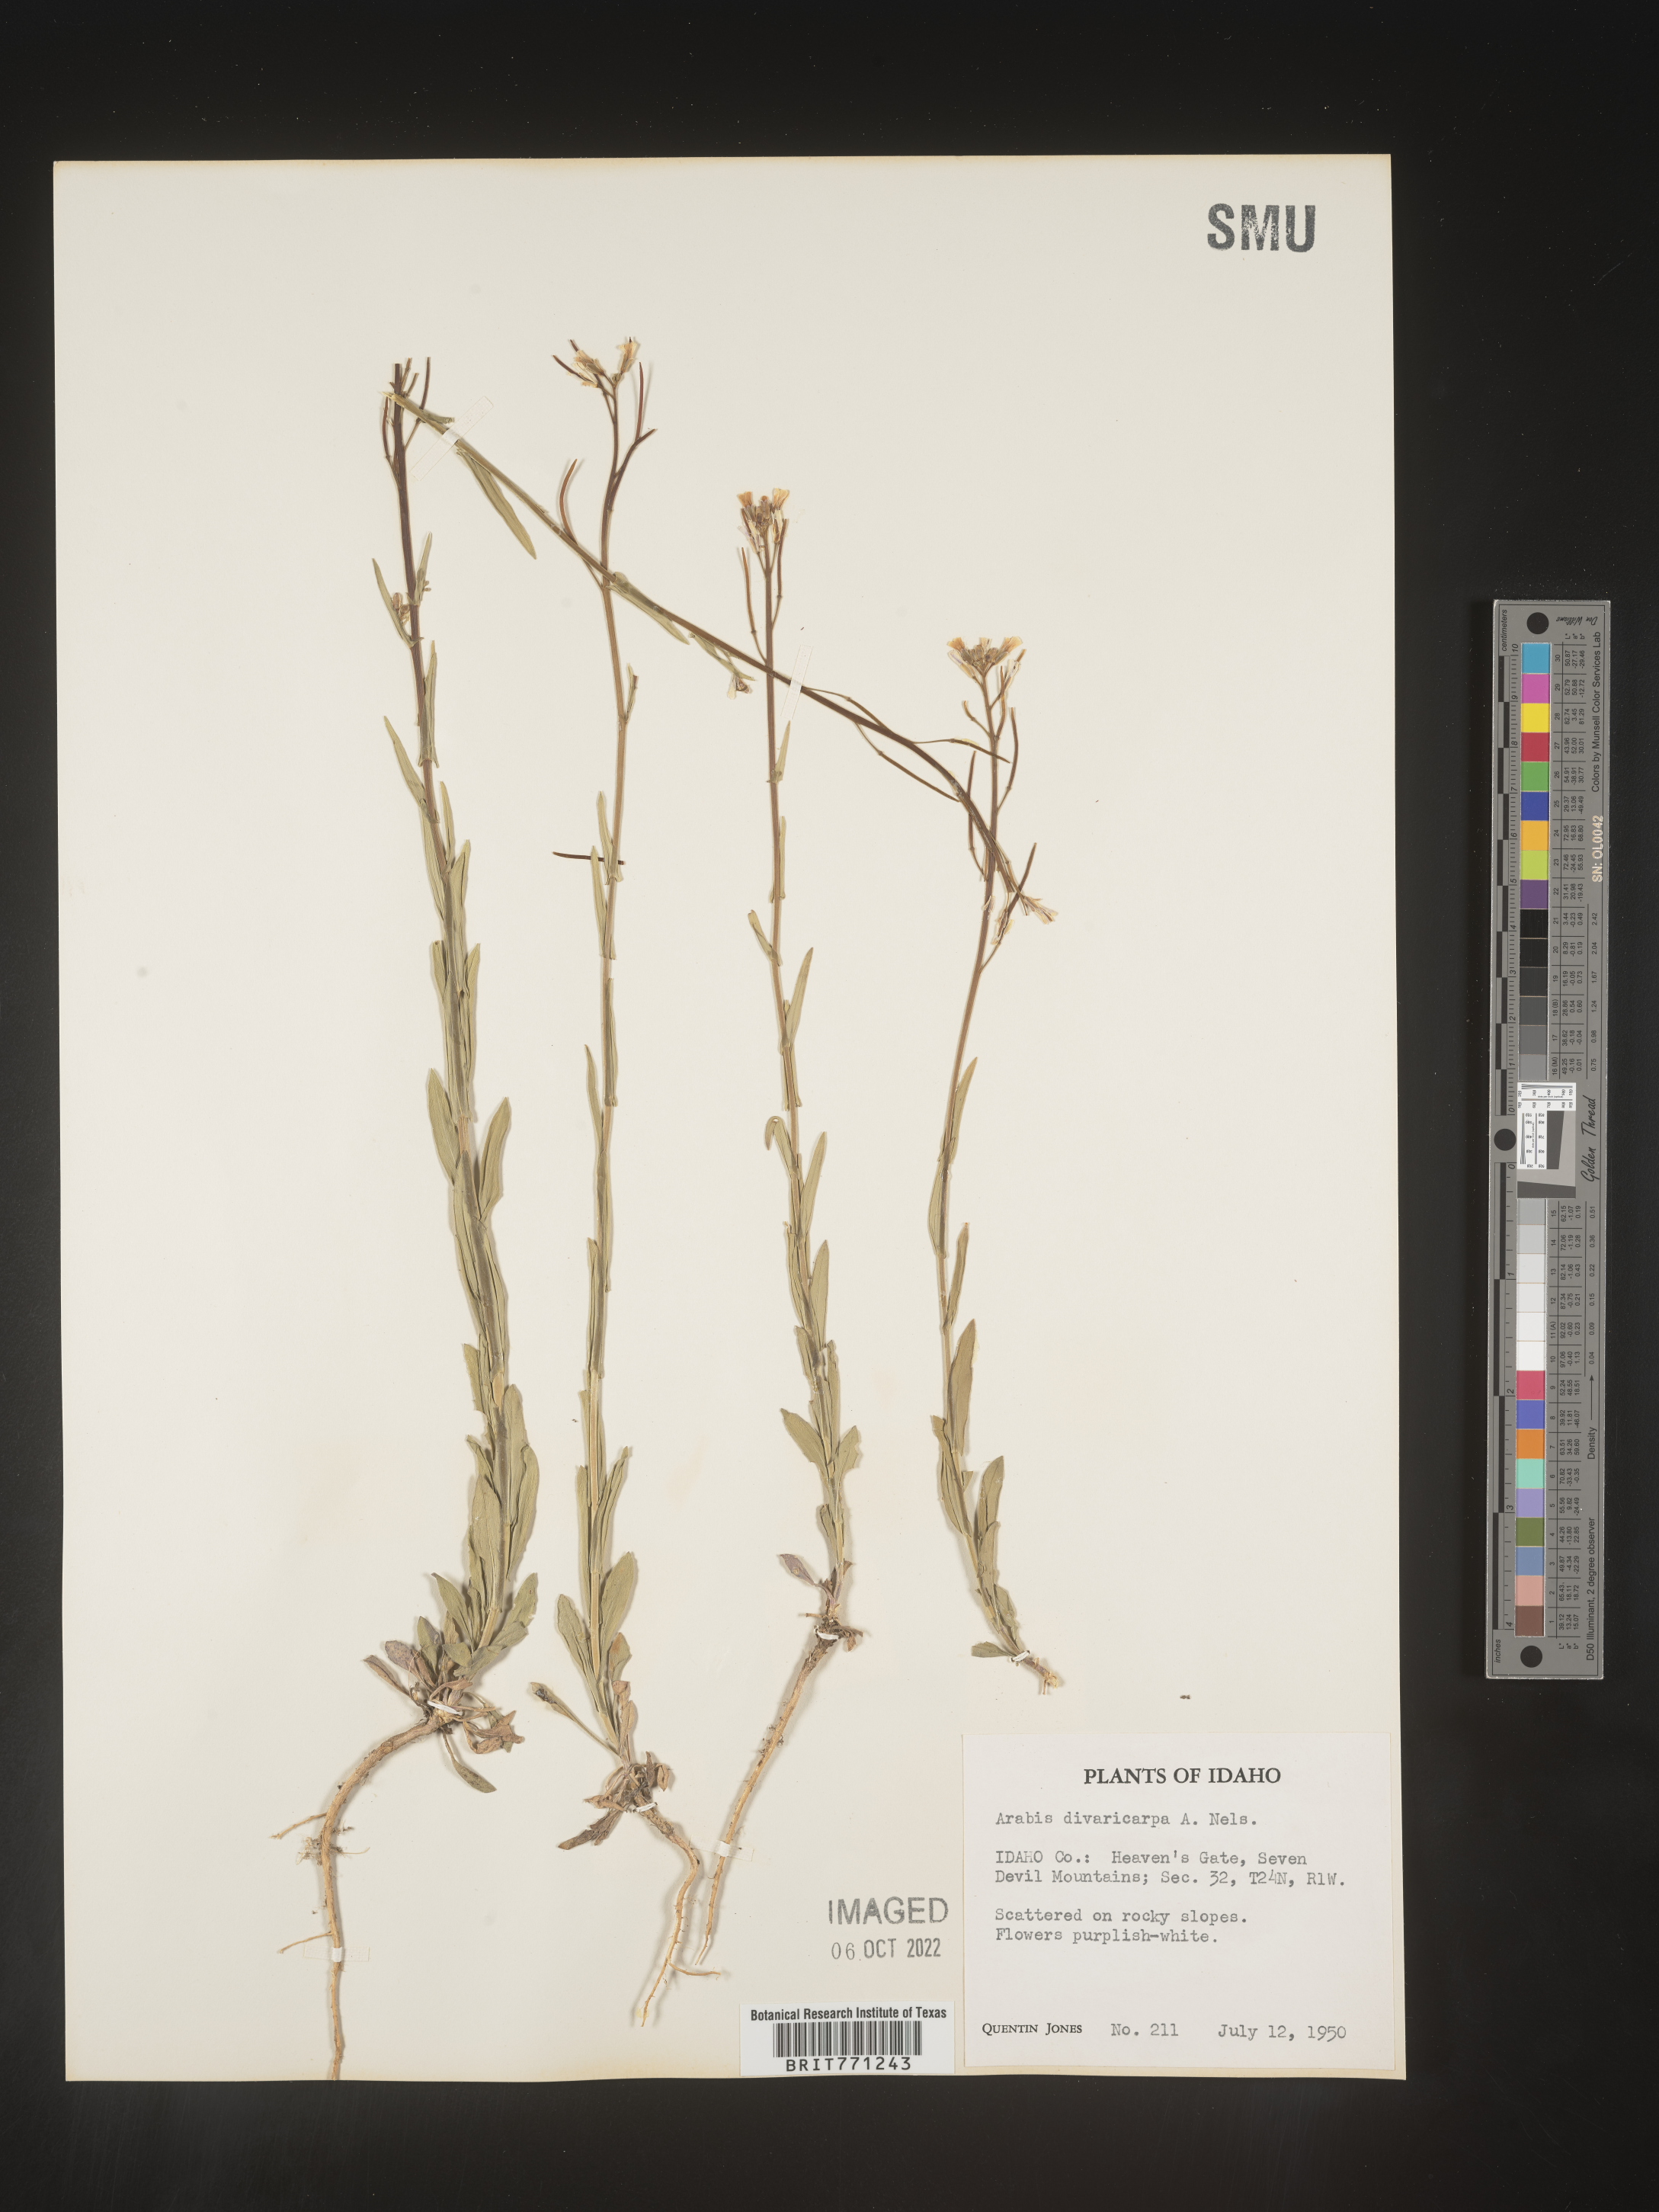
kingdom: Plantae
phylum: Tracheophyta
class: Magnoliopsida
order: Brassicales
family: Brassicaceae
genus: Boechera
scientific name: Boechera divaricarpa
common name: Divaricate rockcress
